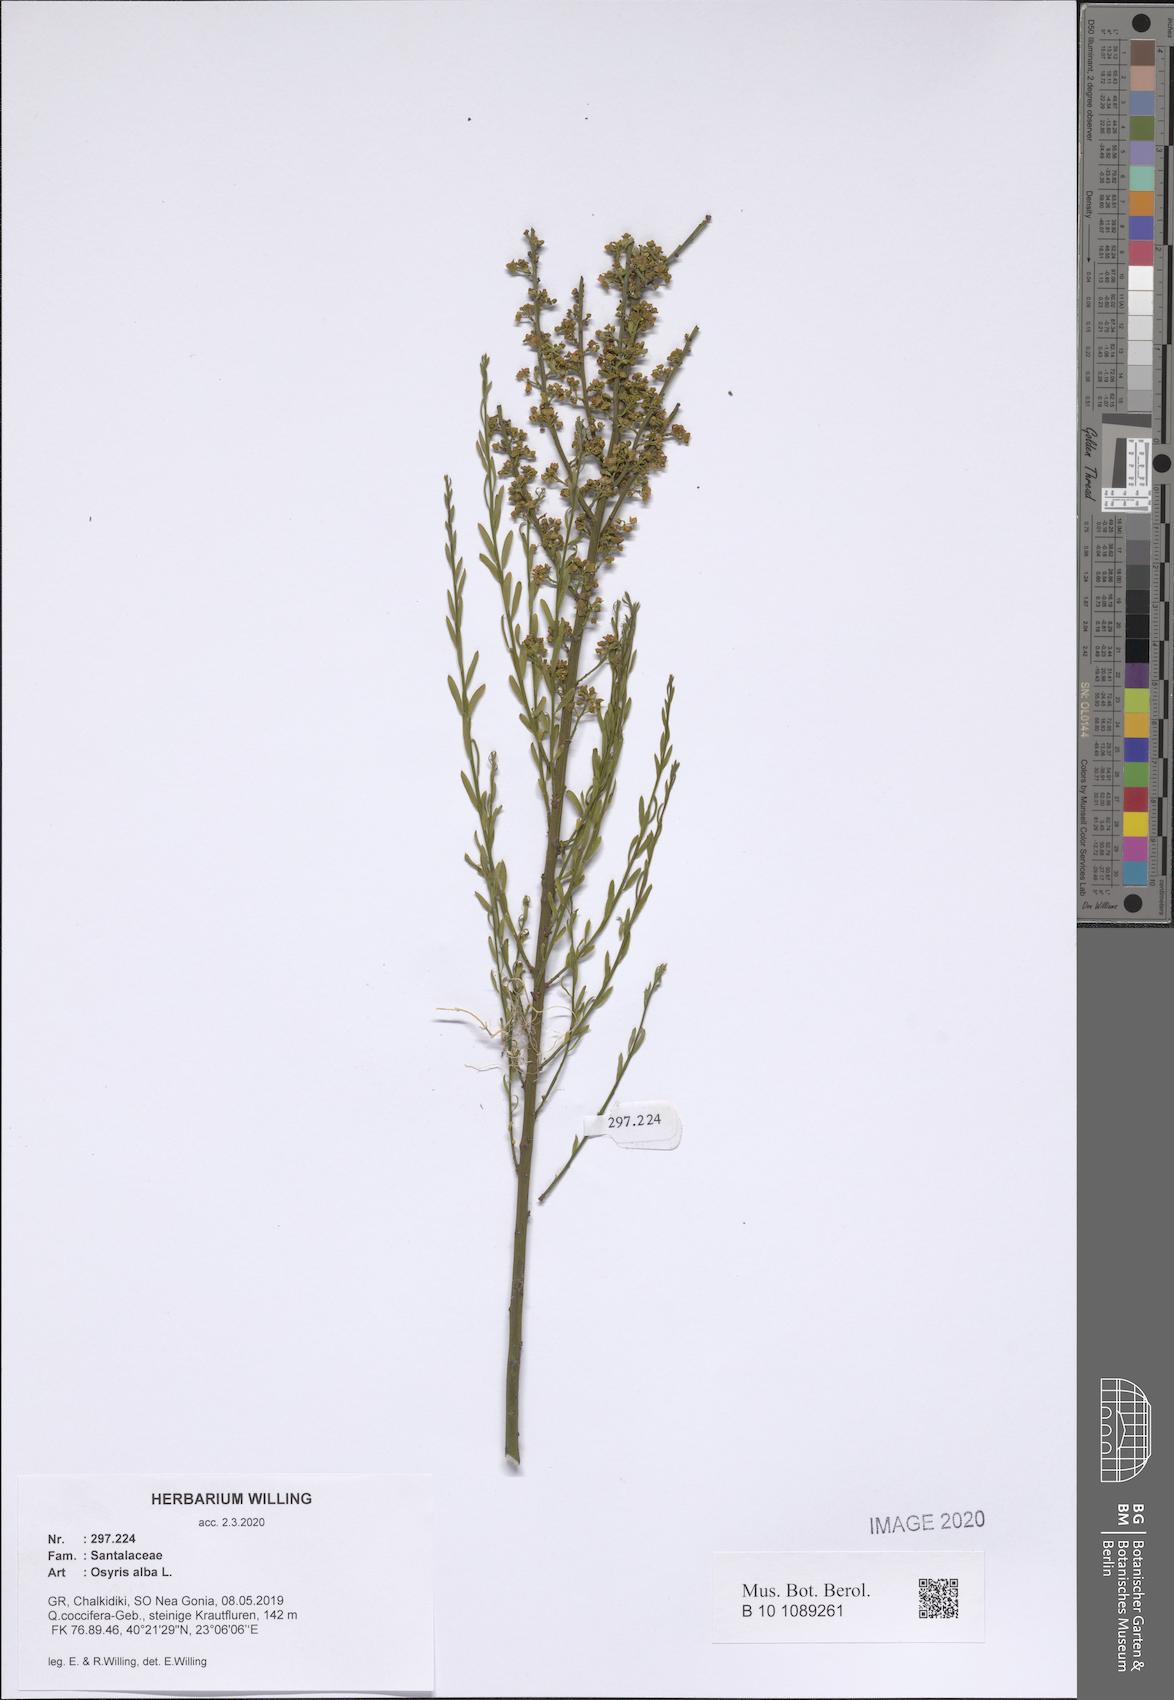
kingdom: Plantae
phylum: Tracheophyta
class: Magnoliopsida
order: Santalales
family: Santalaceae
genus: Osyris
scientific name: Osyris alba
